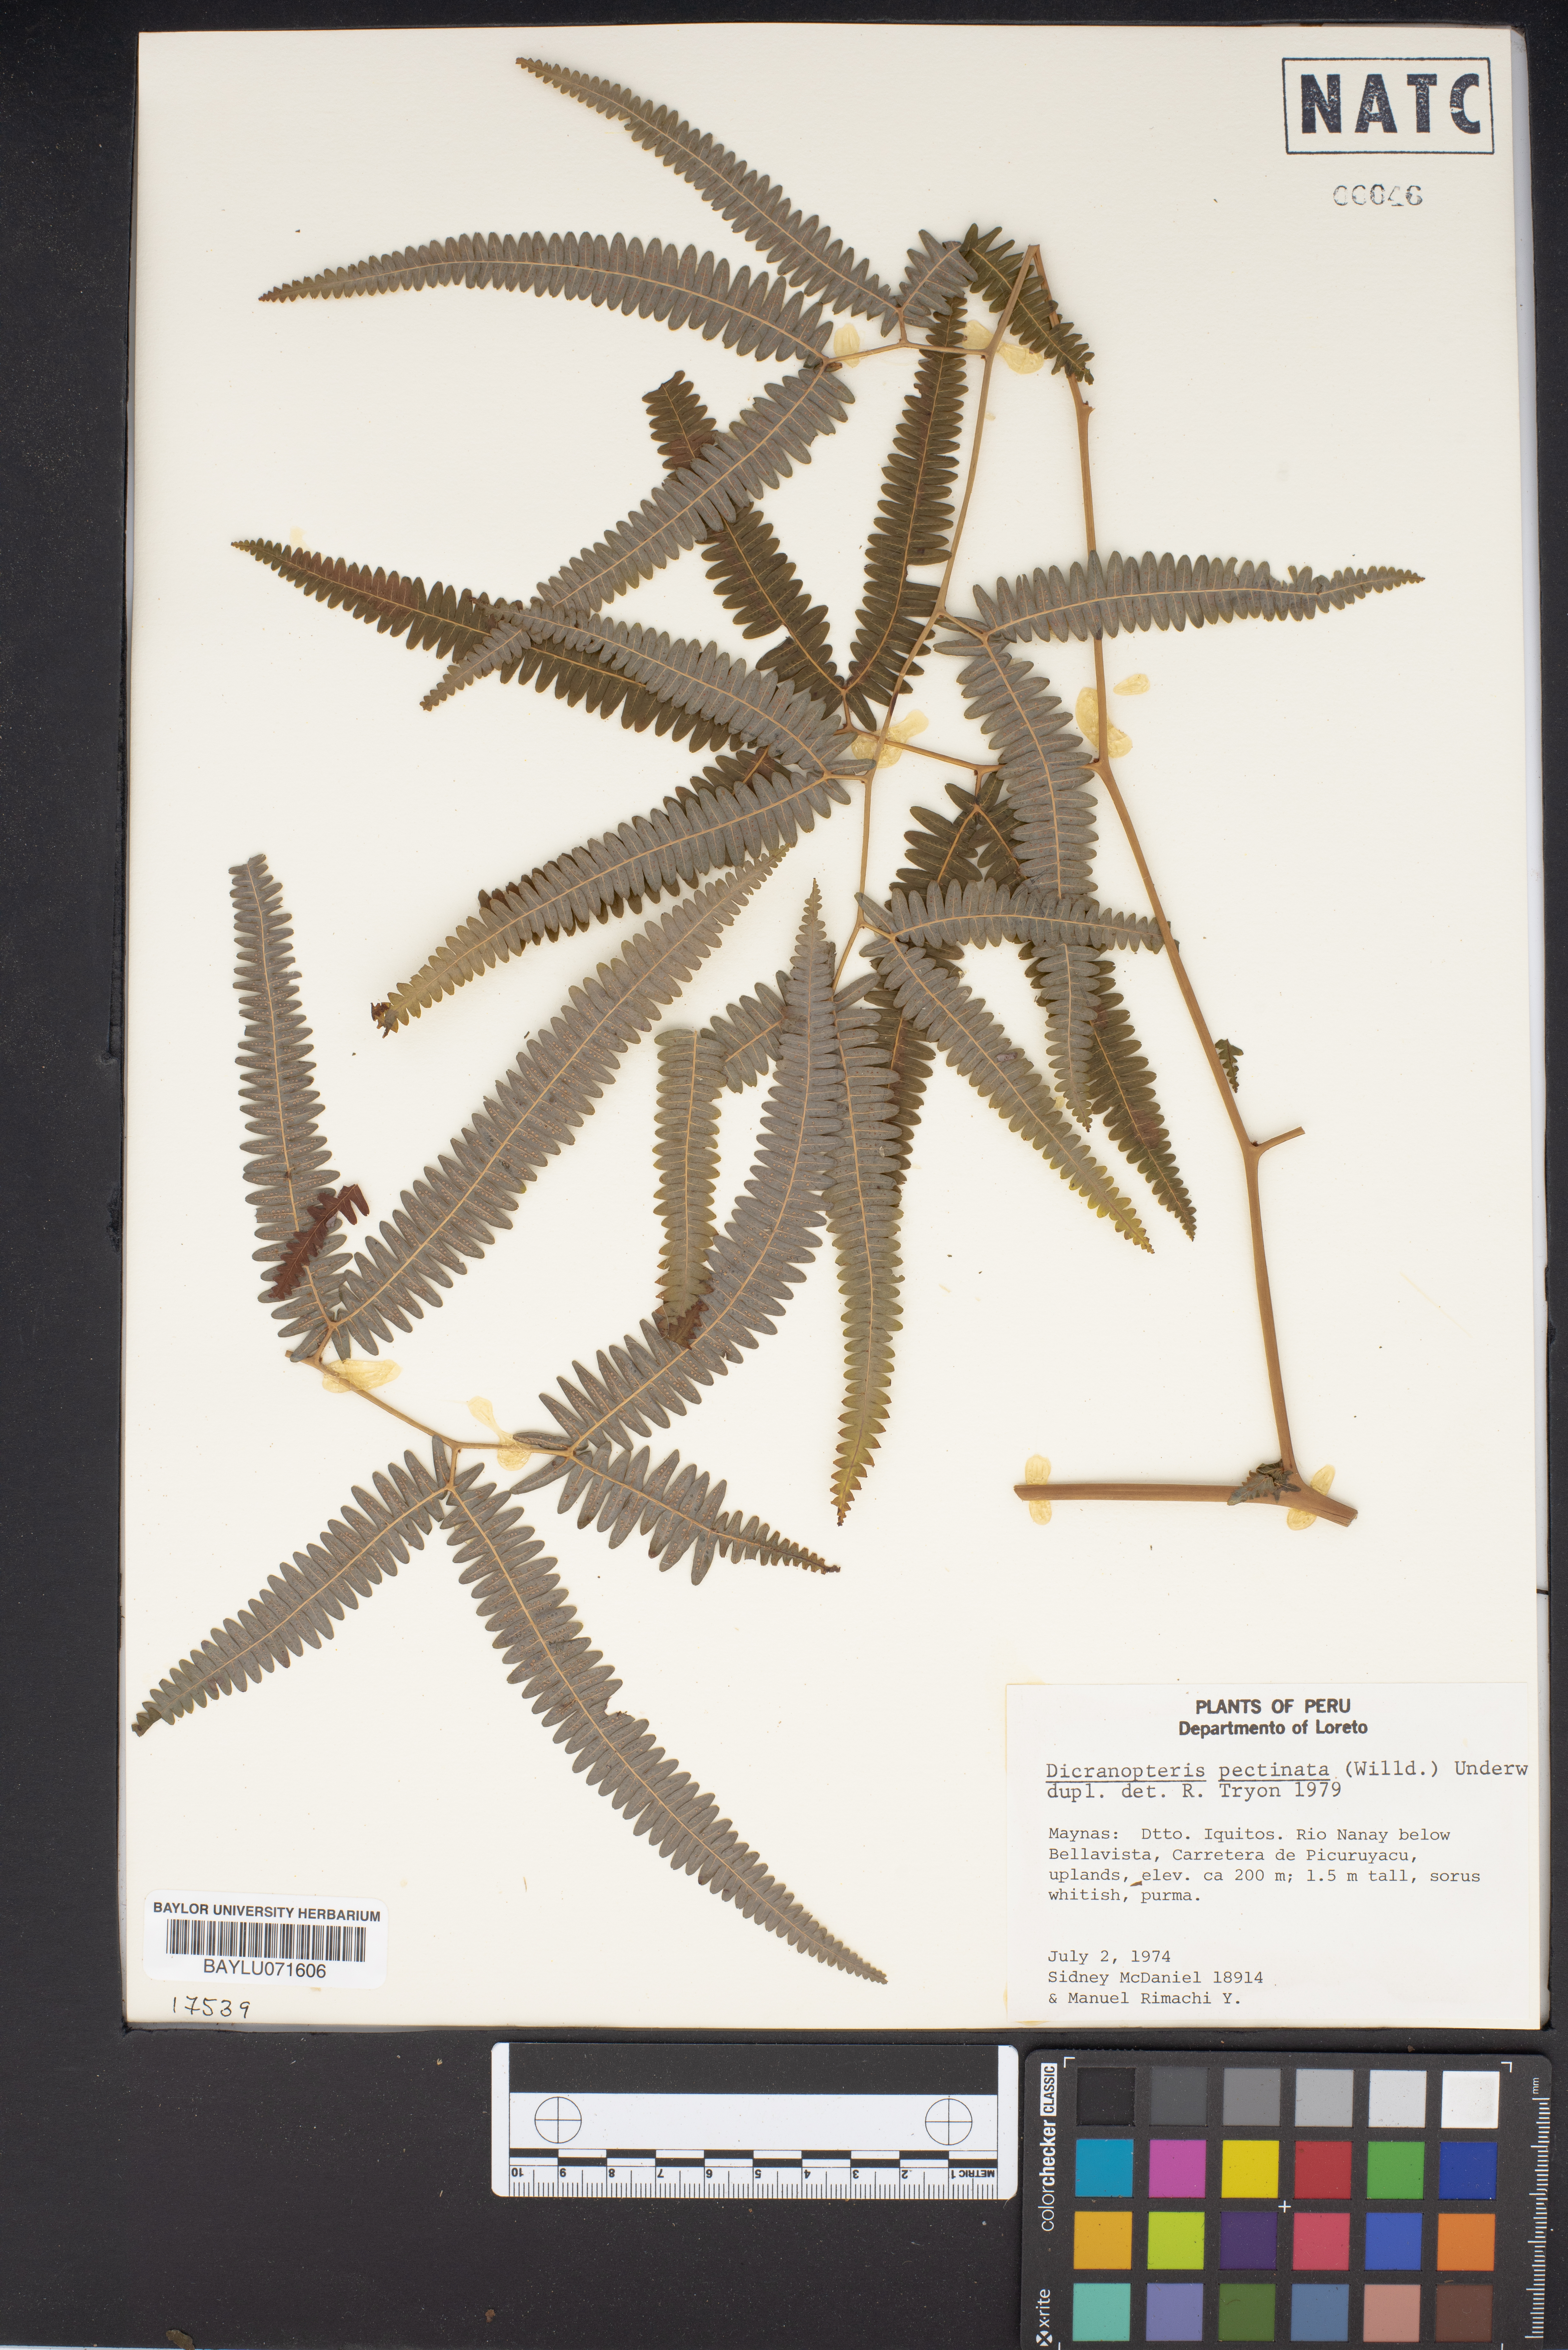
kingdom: Plantae
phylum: Tracheophyta
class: Polypodiopsida
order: Gleicheniales
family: Gleicheniaceae
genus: Gleichenella
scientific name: Gleichenella pectinata
